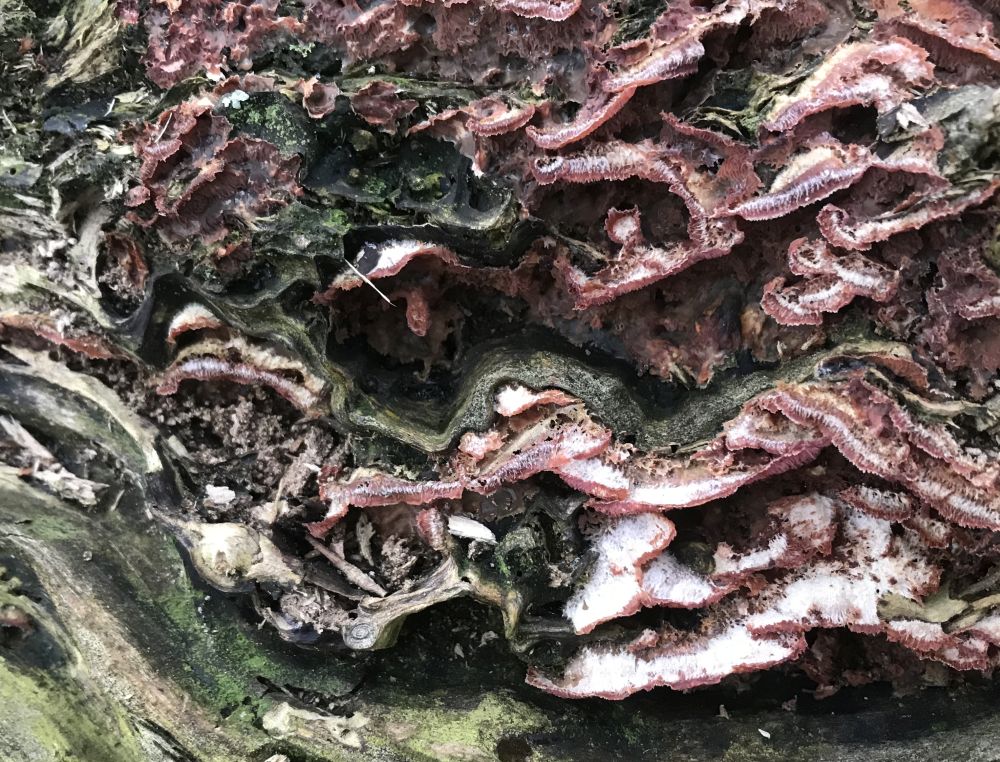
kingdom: Fungi
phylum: Basidiomycota
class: Agaricomycetes
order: Polyporales
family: Meruliaceae
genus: Phlebia
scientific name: Phlebia tremellosa
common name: bævrende åresvamp
